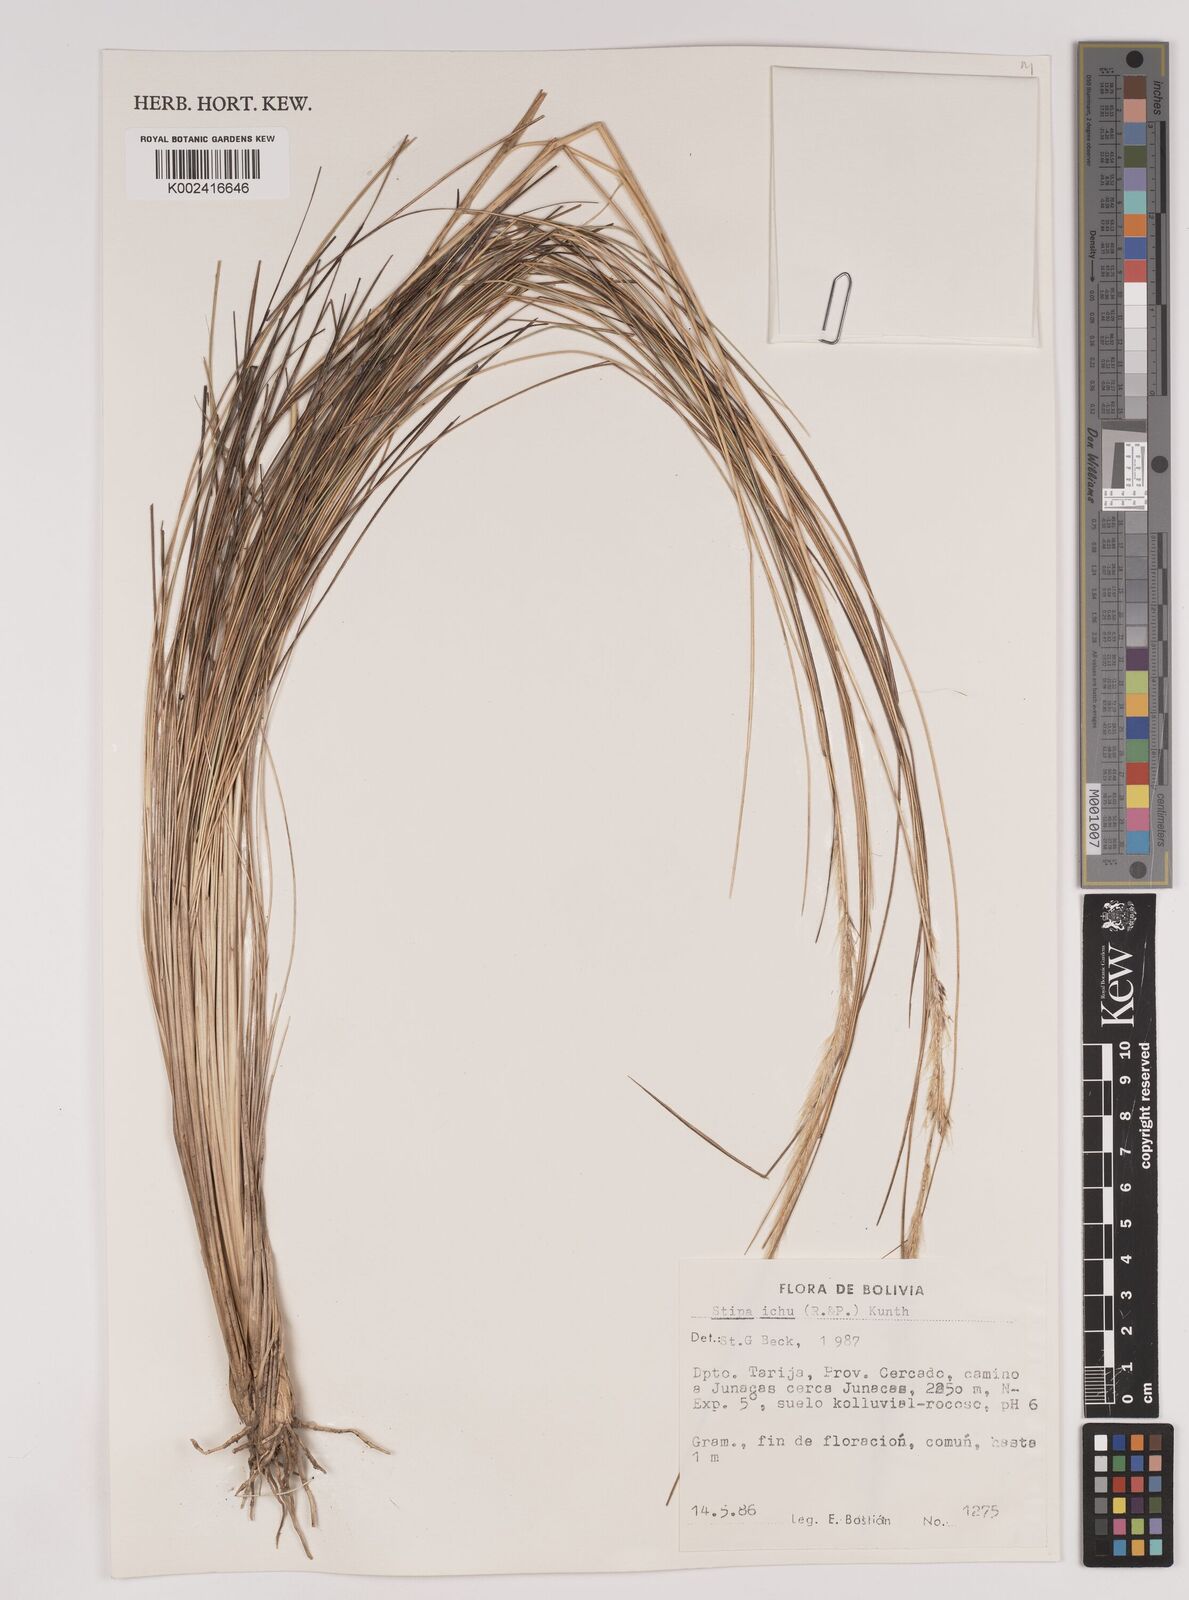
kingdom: Plantae
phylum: Tracheophyta
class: Liliopsida
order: Poales
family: Poaceae
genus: Jarava
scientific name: Jarava leptostachya
